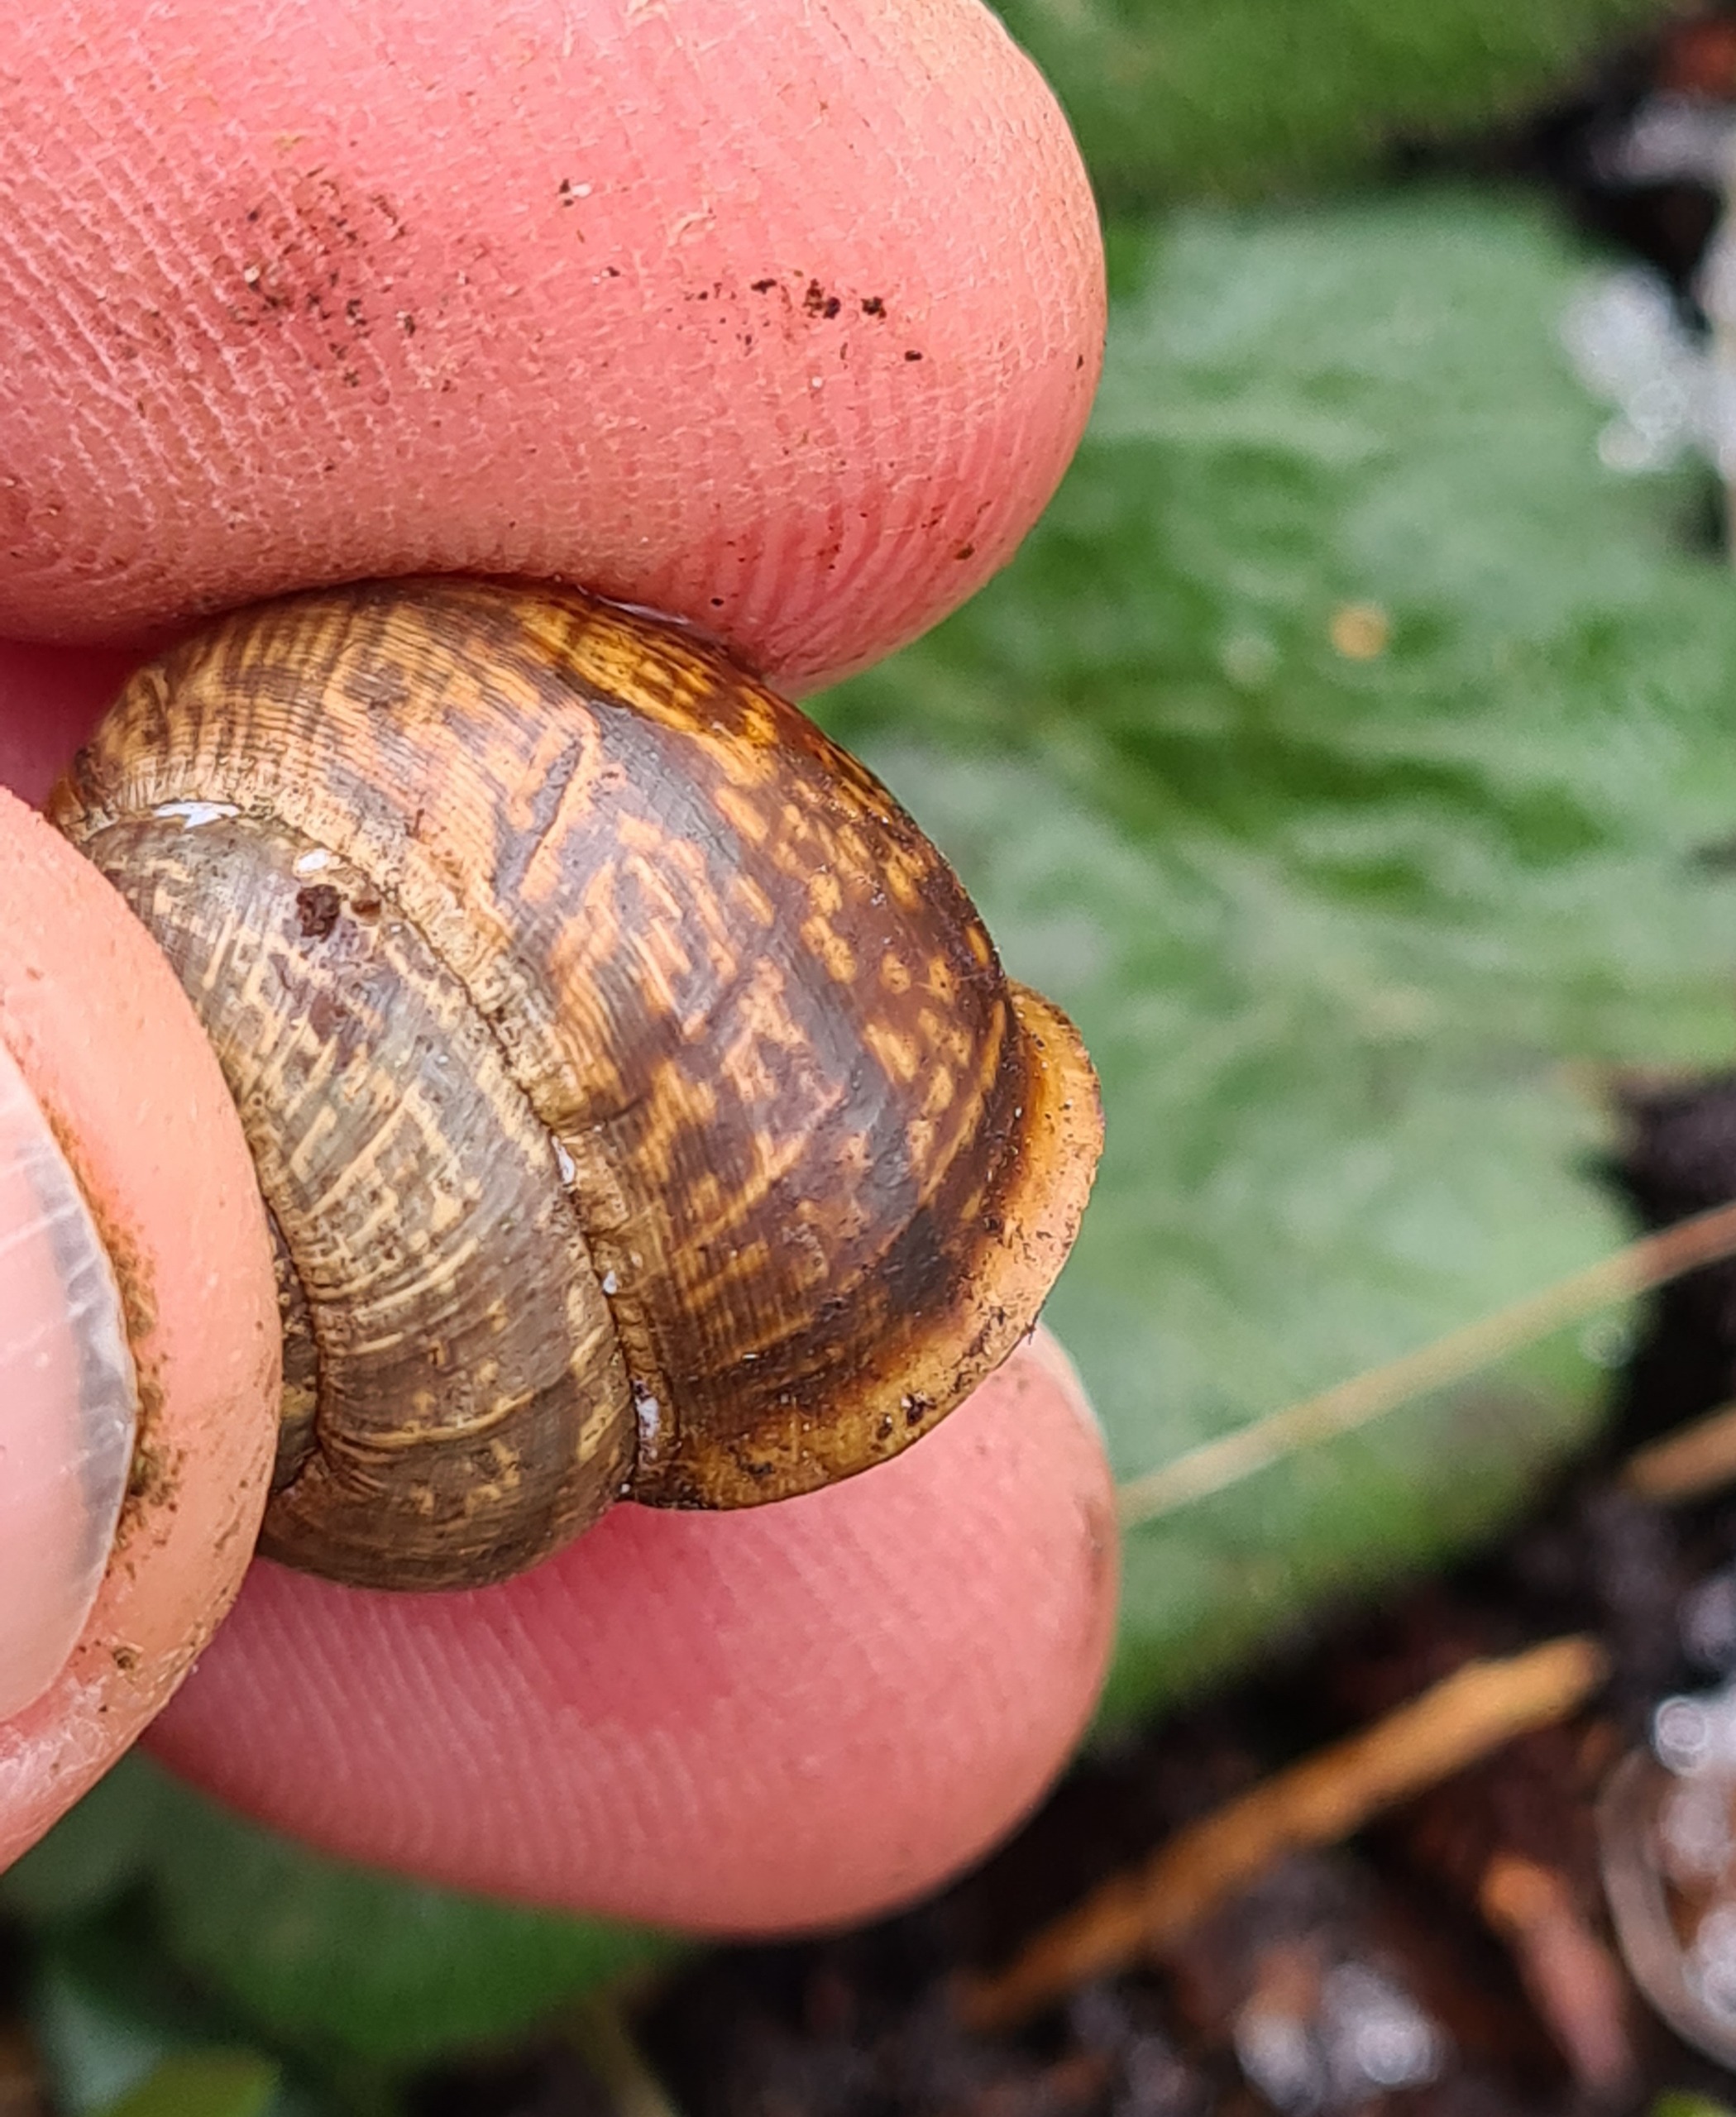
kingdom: Animalia
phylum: Mollusca
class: Gastropoda
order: Stylommatophora
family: Helicidae
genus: Arianta
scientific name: Arianta arbustorum
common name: Kratsnegl
